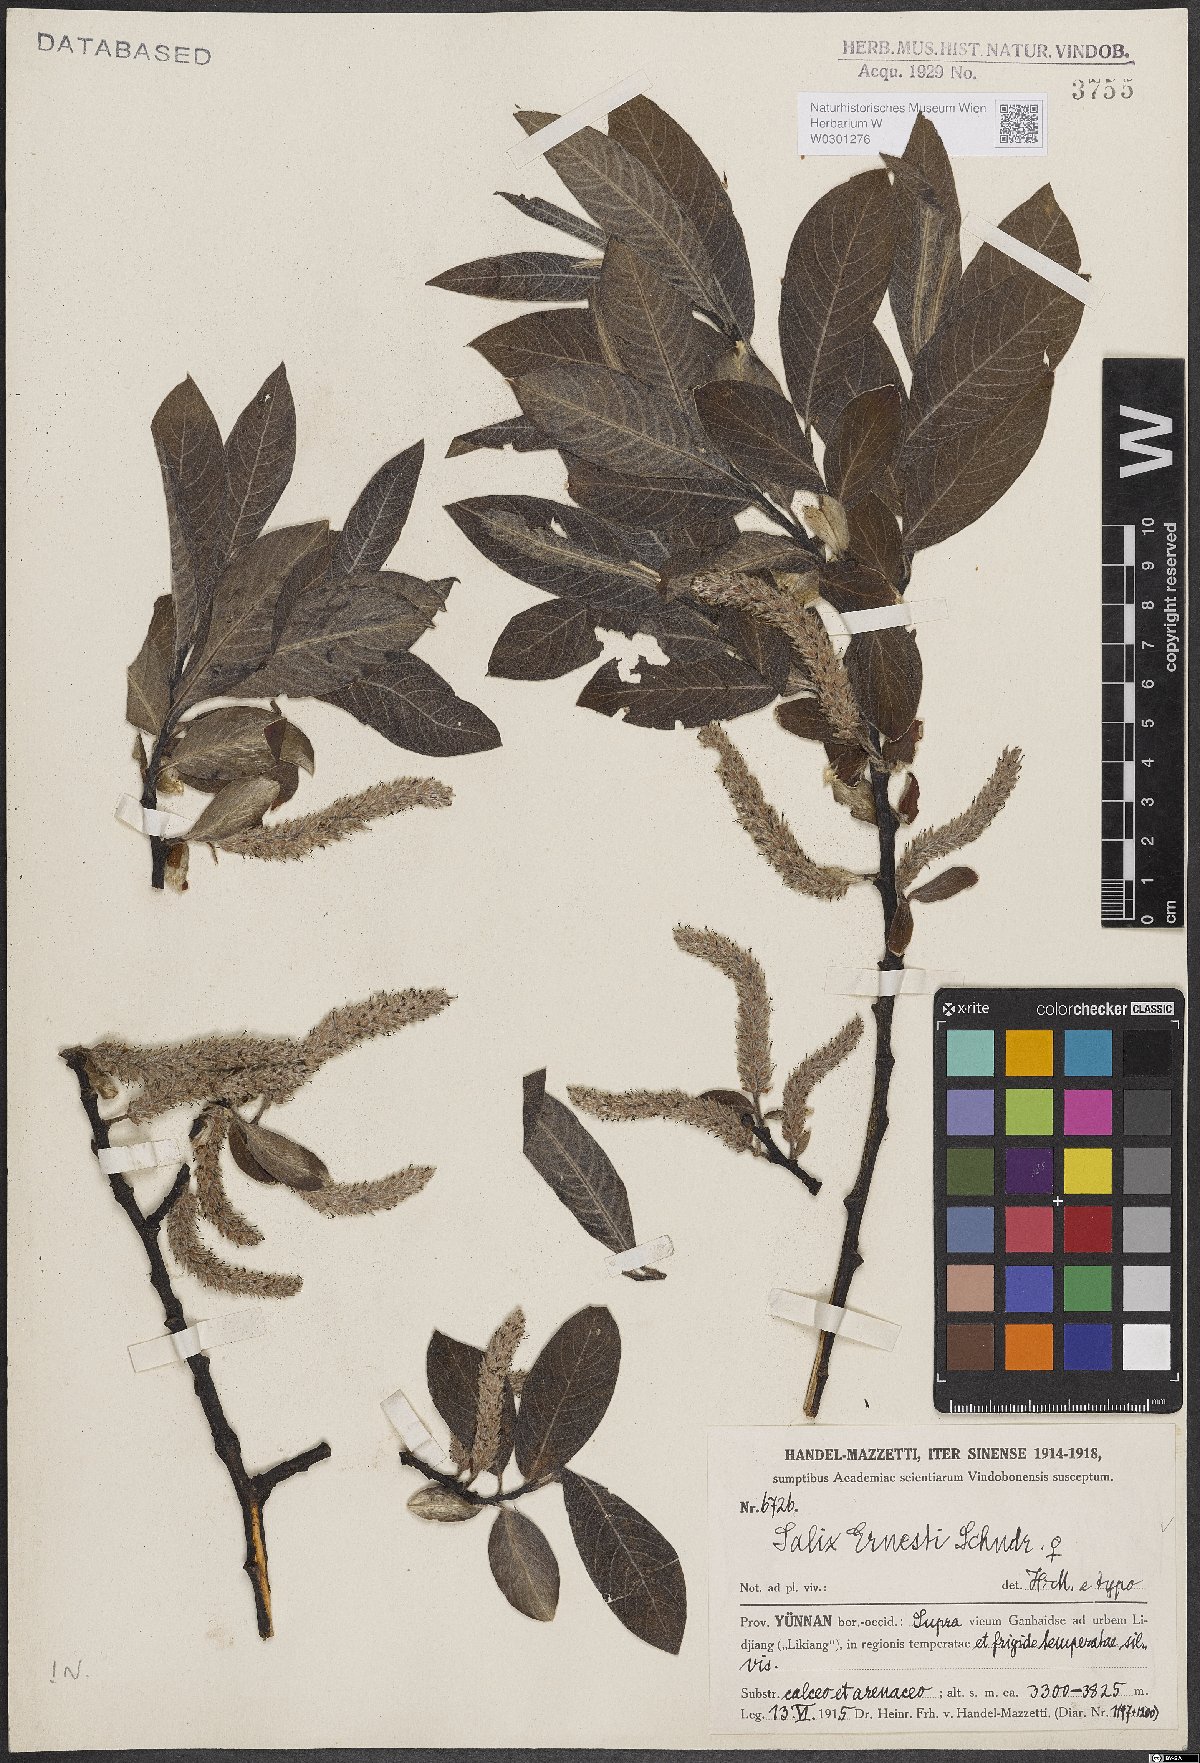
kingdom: Plantae
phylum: Tracheophyta
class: Magnoliopsida
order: Malpighiales
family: Salicaceae
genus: Salix
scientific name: Salix ernestii
